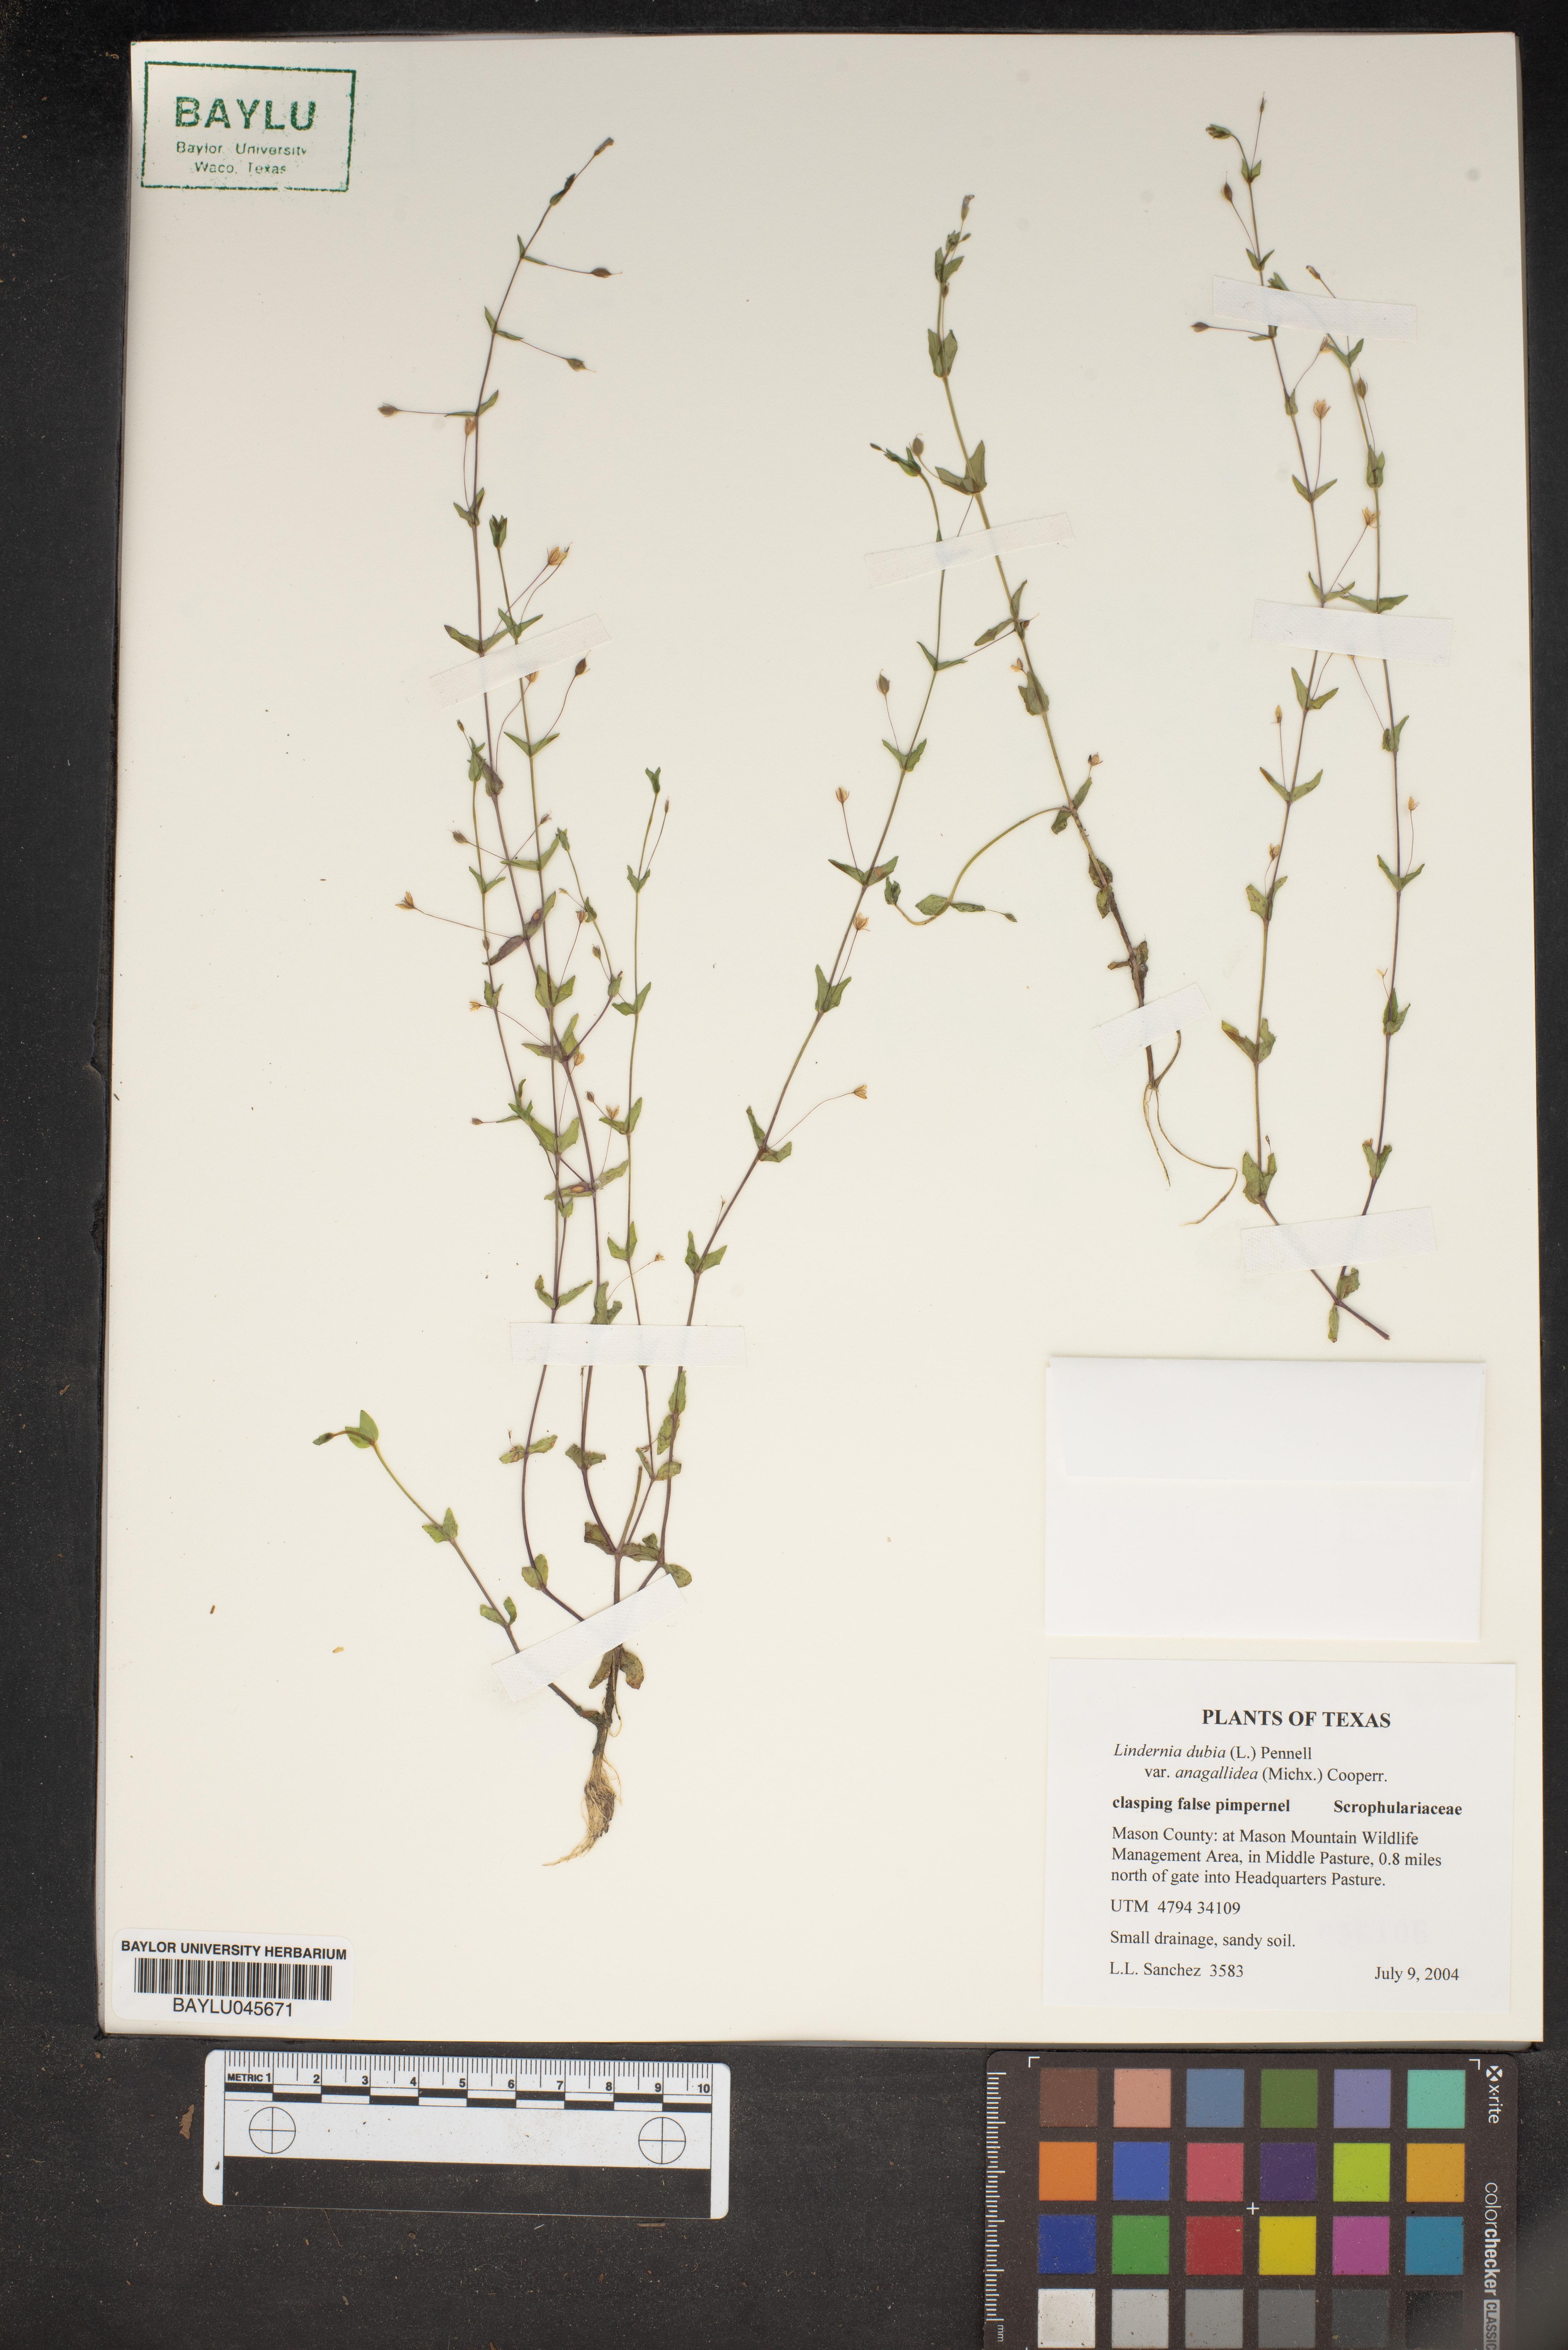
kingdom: Plantae
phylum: Tracheophyta
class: Magnoliopsida
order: Lamiales
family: Linderniaceae
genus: Lindernia
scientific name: Lindernia dubia
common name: Annual false pimpernel
